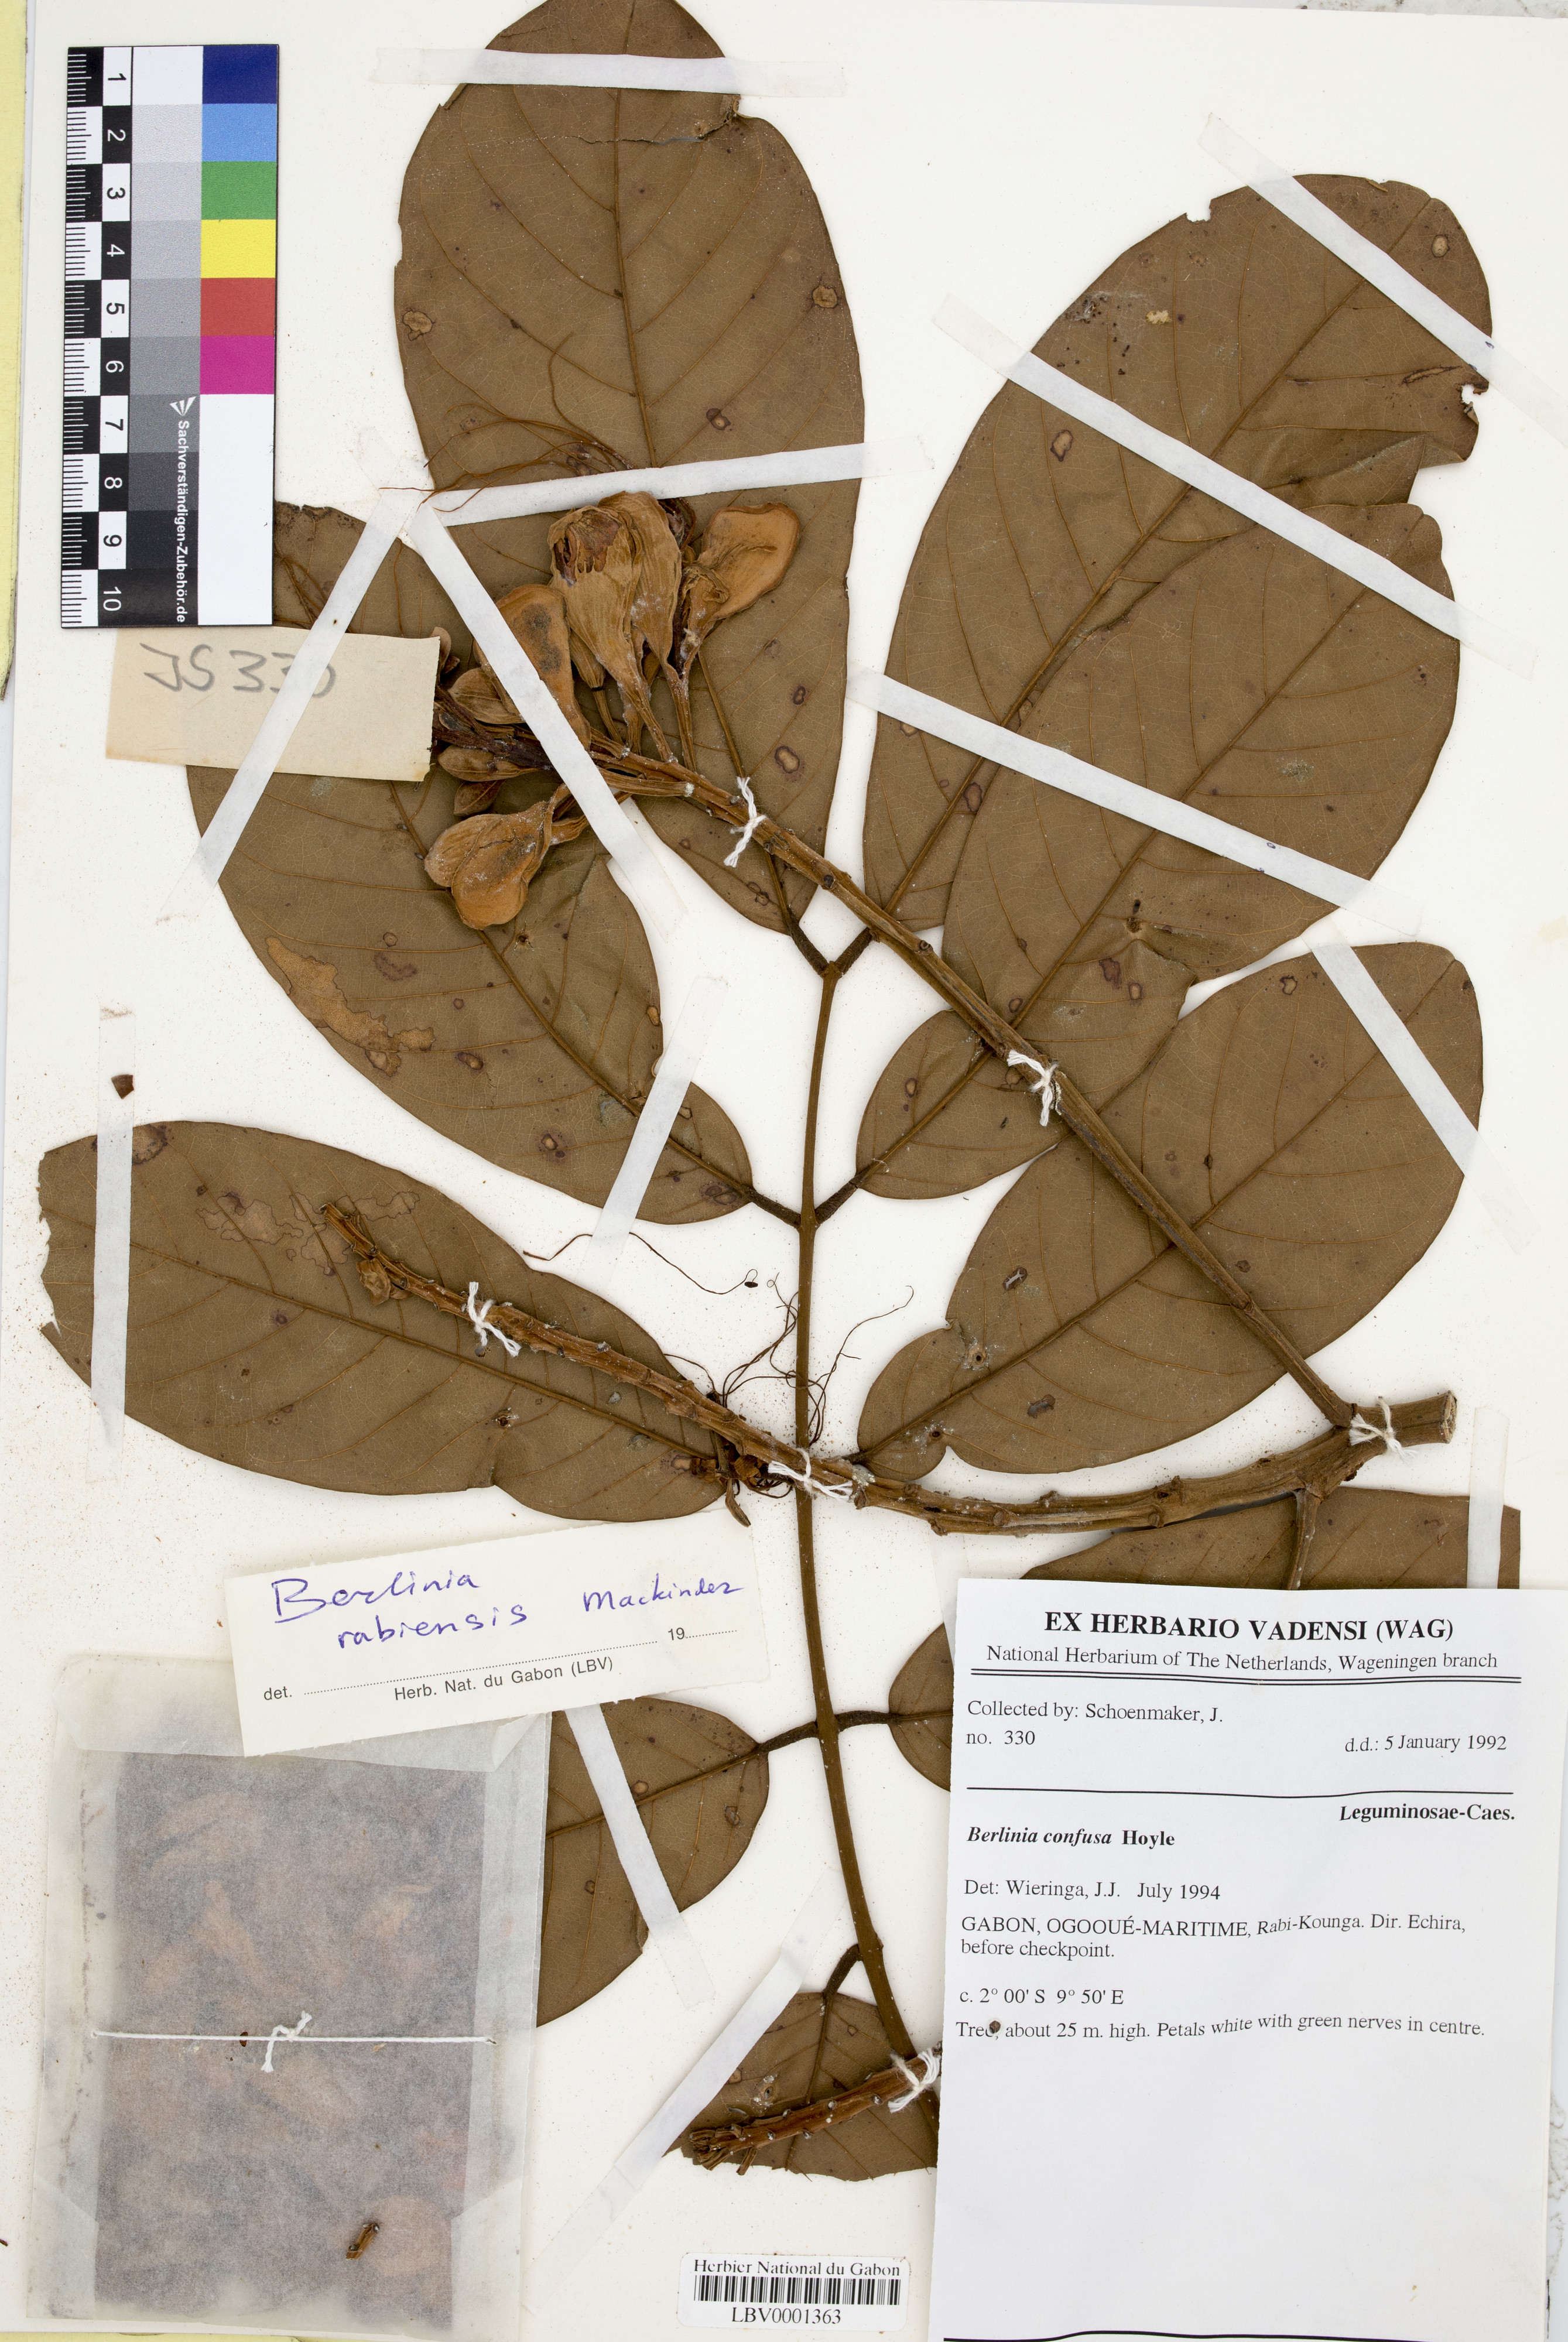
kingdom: Plantae
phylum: Tracheophyta
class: Magnoliopsida
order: Fabales
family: Fabaceae
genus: Berlinia
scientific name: Berlinia rabiensis
